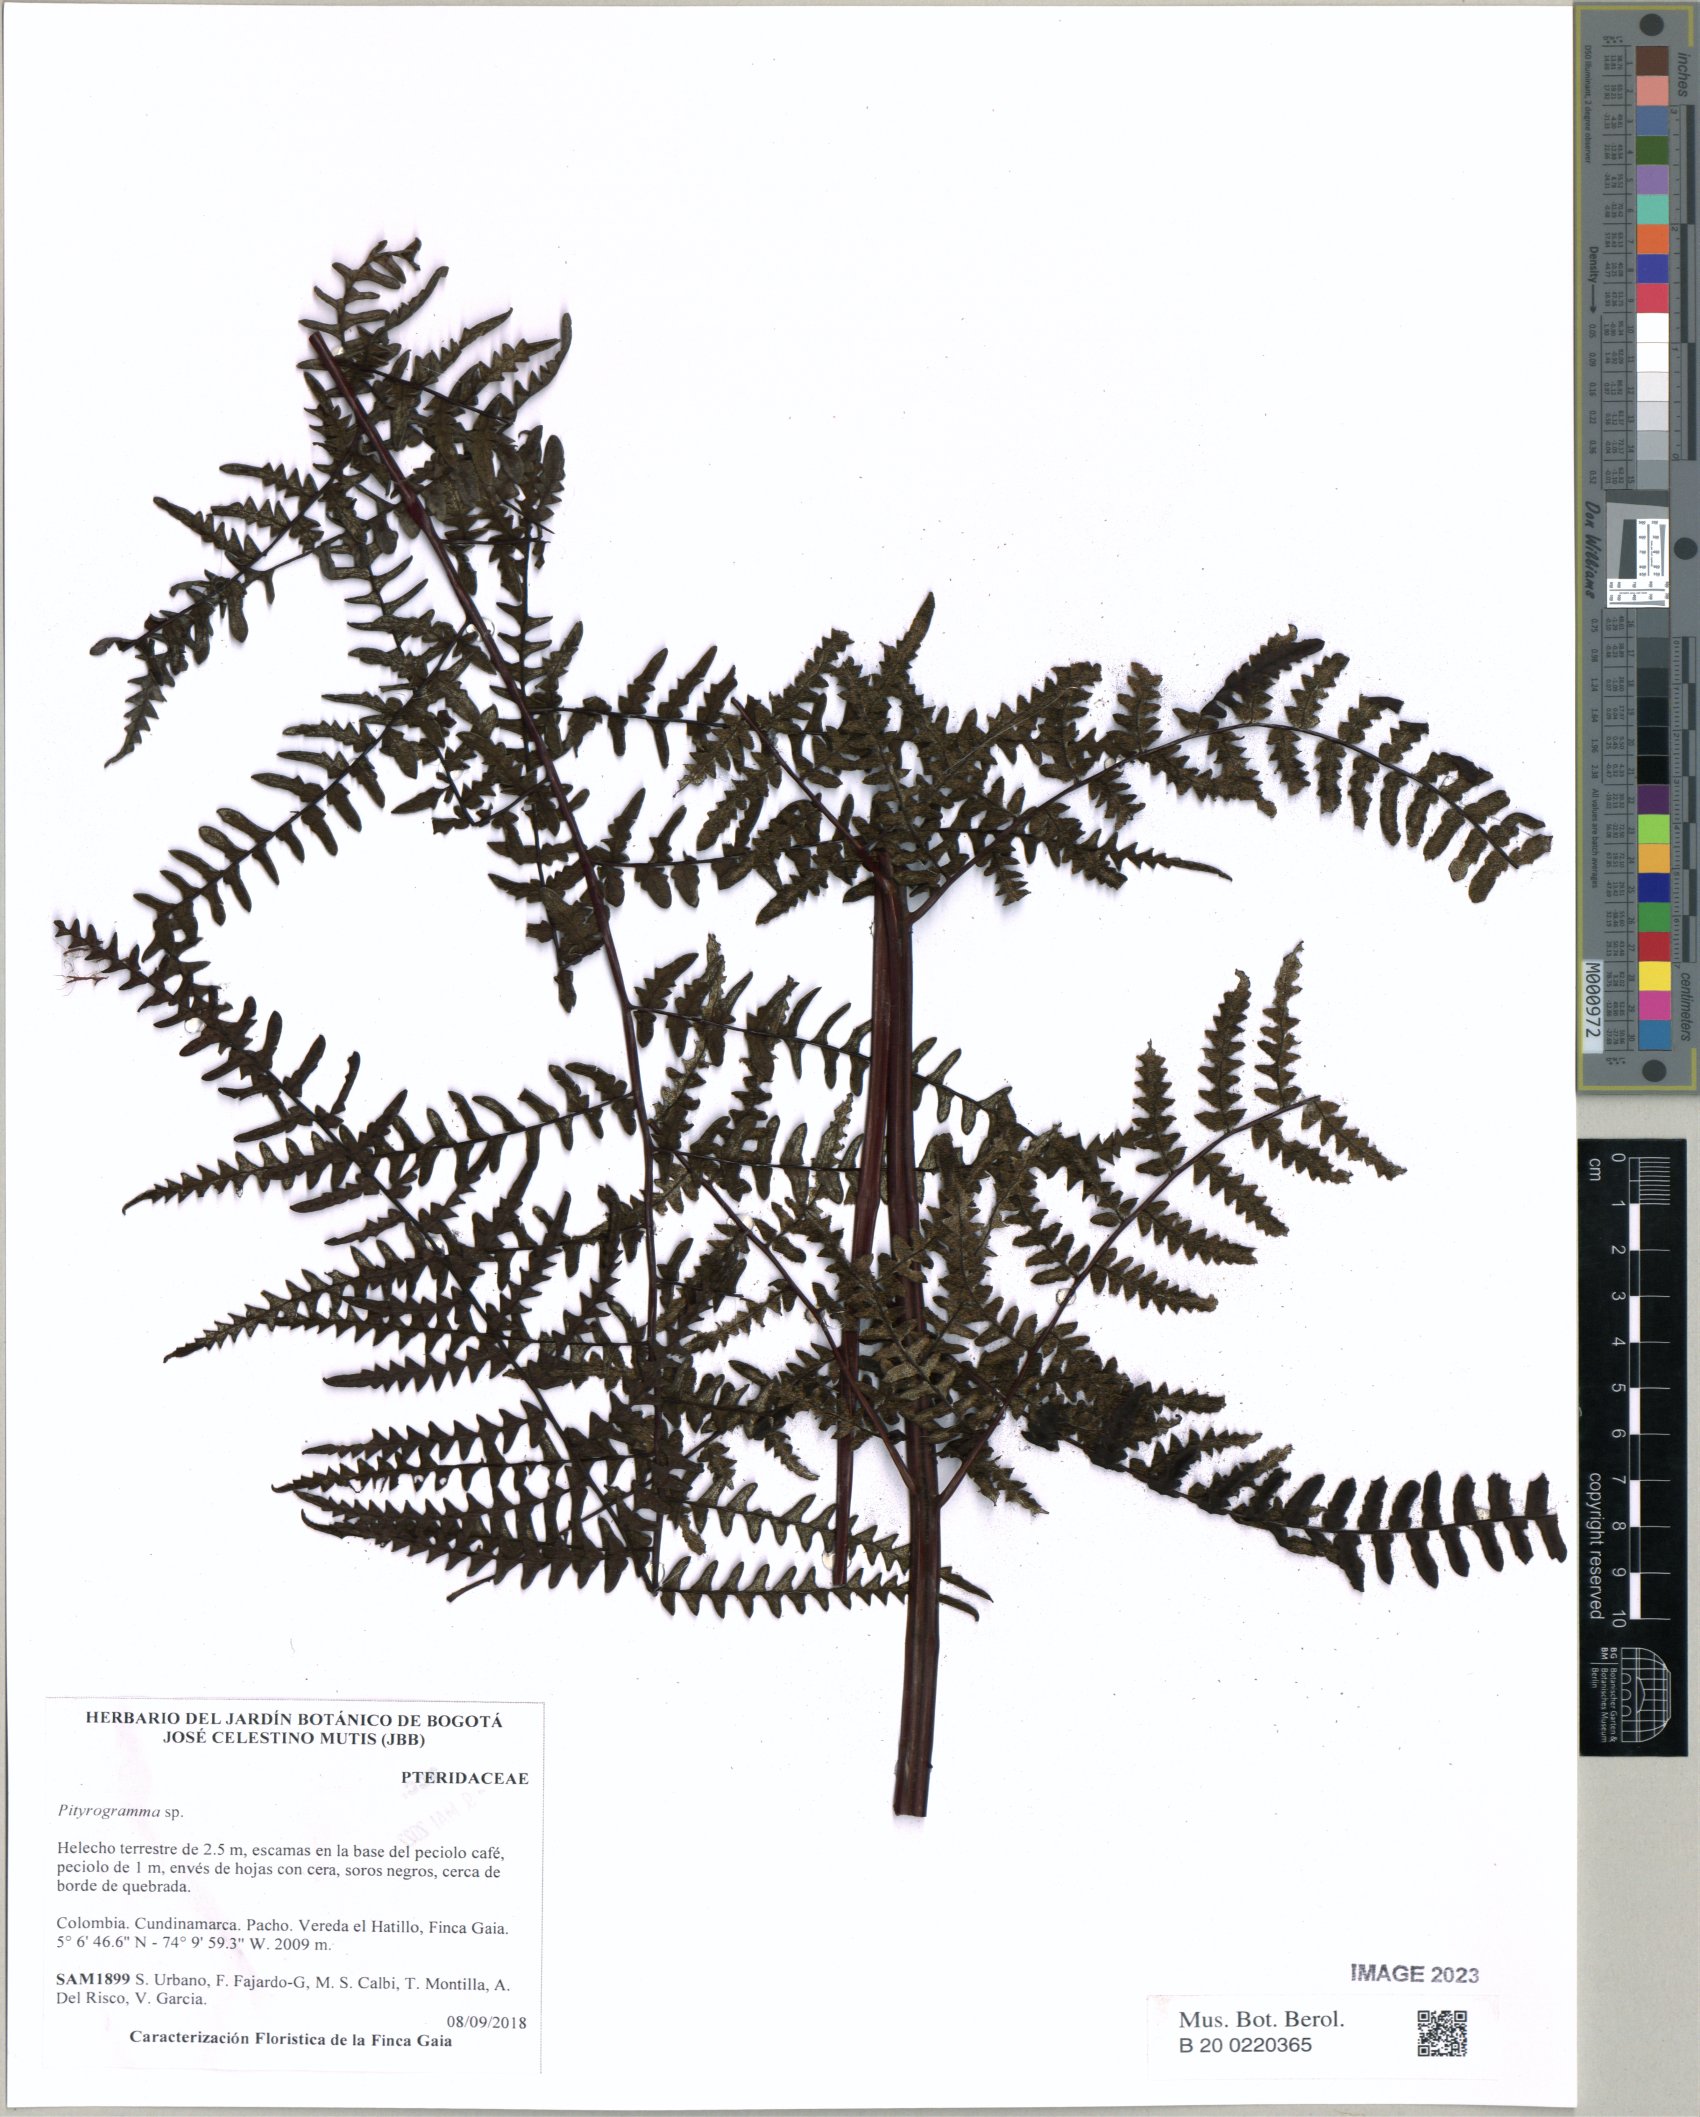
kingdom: Plantae
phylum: Tracheophyta
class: Polypodiopsida
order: Polypodiales
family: Pteridaceae
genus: Pityrogramma
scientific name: Pityrogramma
